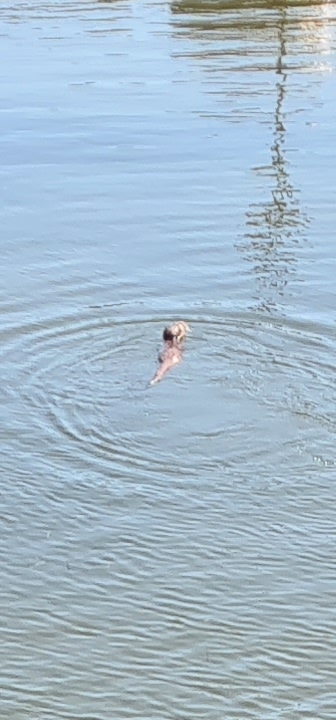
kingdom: Animalia
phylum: Chordata
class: Mammalia
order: Carnivora
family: Mustelidae
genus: Lutra
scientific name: Lutra lutra
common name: Odder
